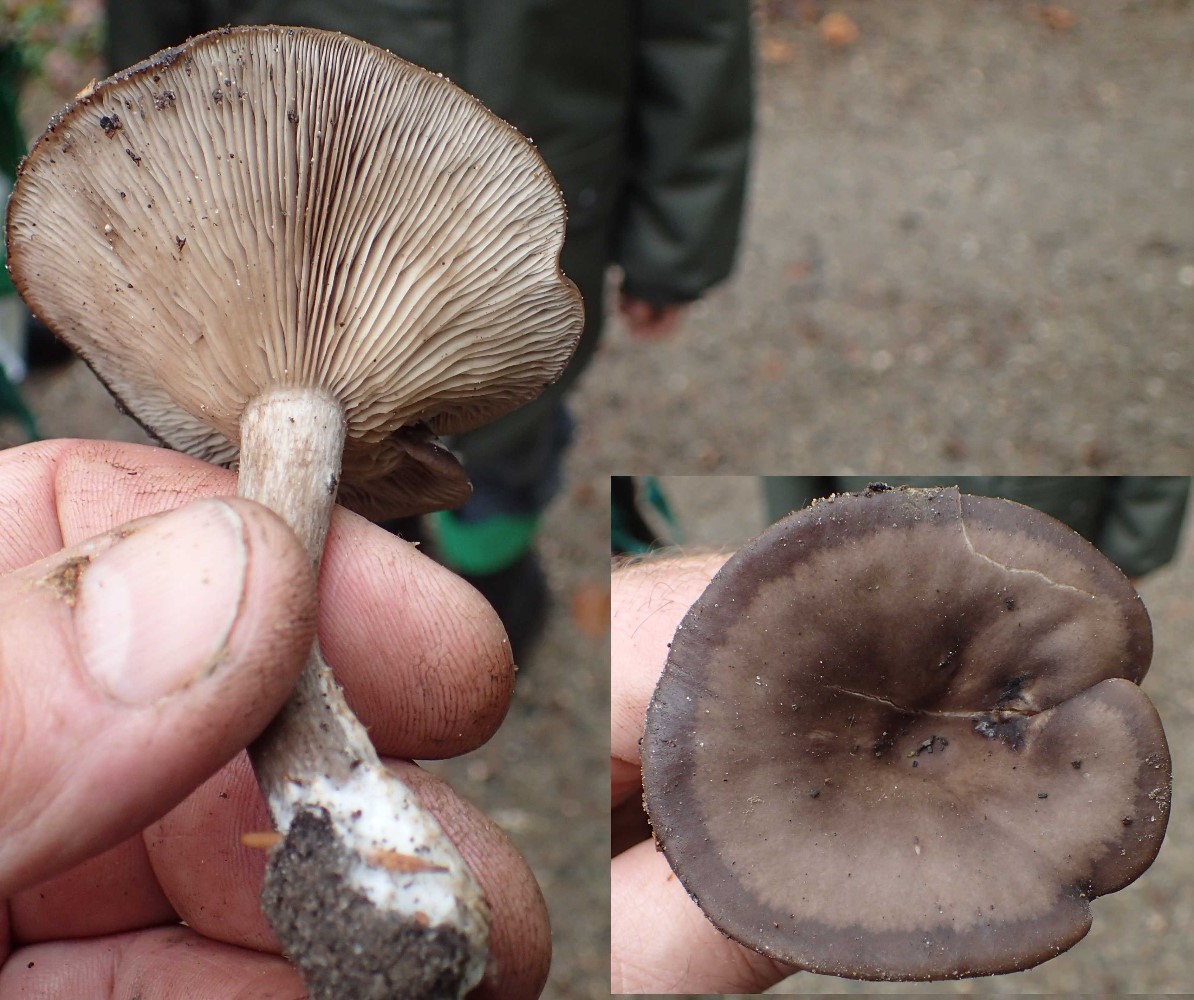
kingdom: Fungi
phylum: Basidiomycota
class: Agaricomycetes
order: Agaricales
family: Pseudoclitocybaceae
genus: Pseudoclitocybe
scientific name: Pseudoclitocybe cyathiformis
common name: almindelig bægertragthat
